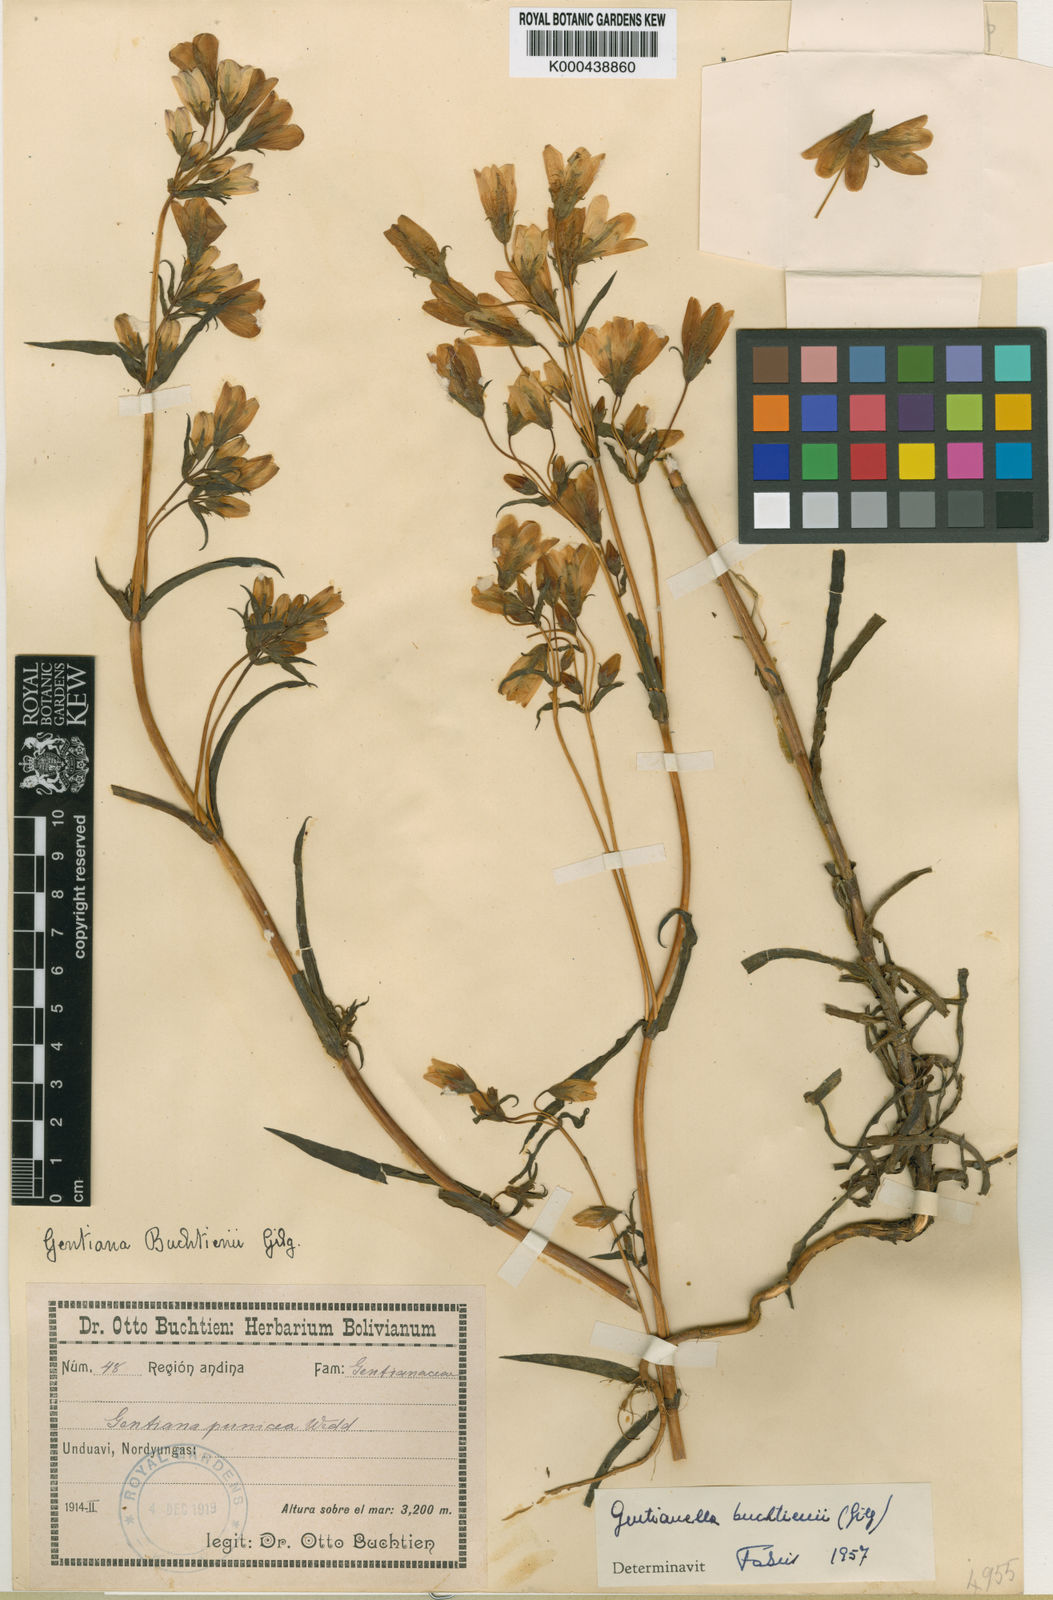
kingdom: Plantae
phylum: Tracheophyta
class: Magnoliopsida
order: Gentianales
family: Gentianaceae
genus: Gentianella
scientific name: Gentianella punicea
